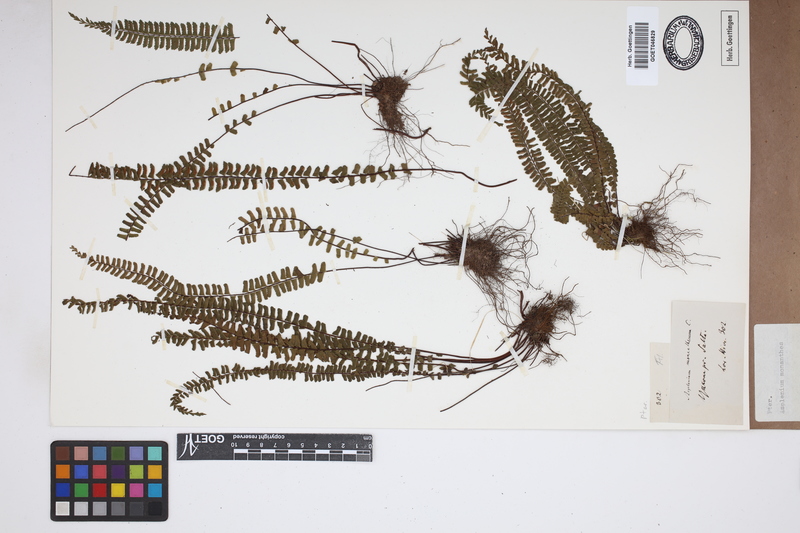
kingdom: Plantae
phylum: Tracheophyta
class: Polypodiopsida
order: Polypodiales
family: Aspleniaceae
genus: Asplenium
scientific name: Asplenium monanthes
